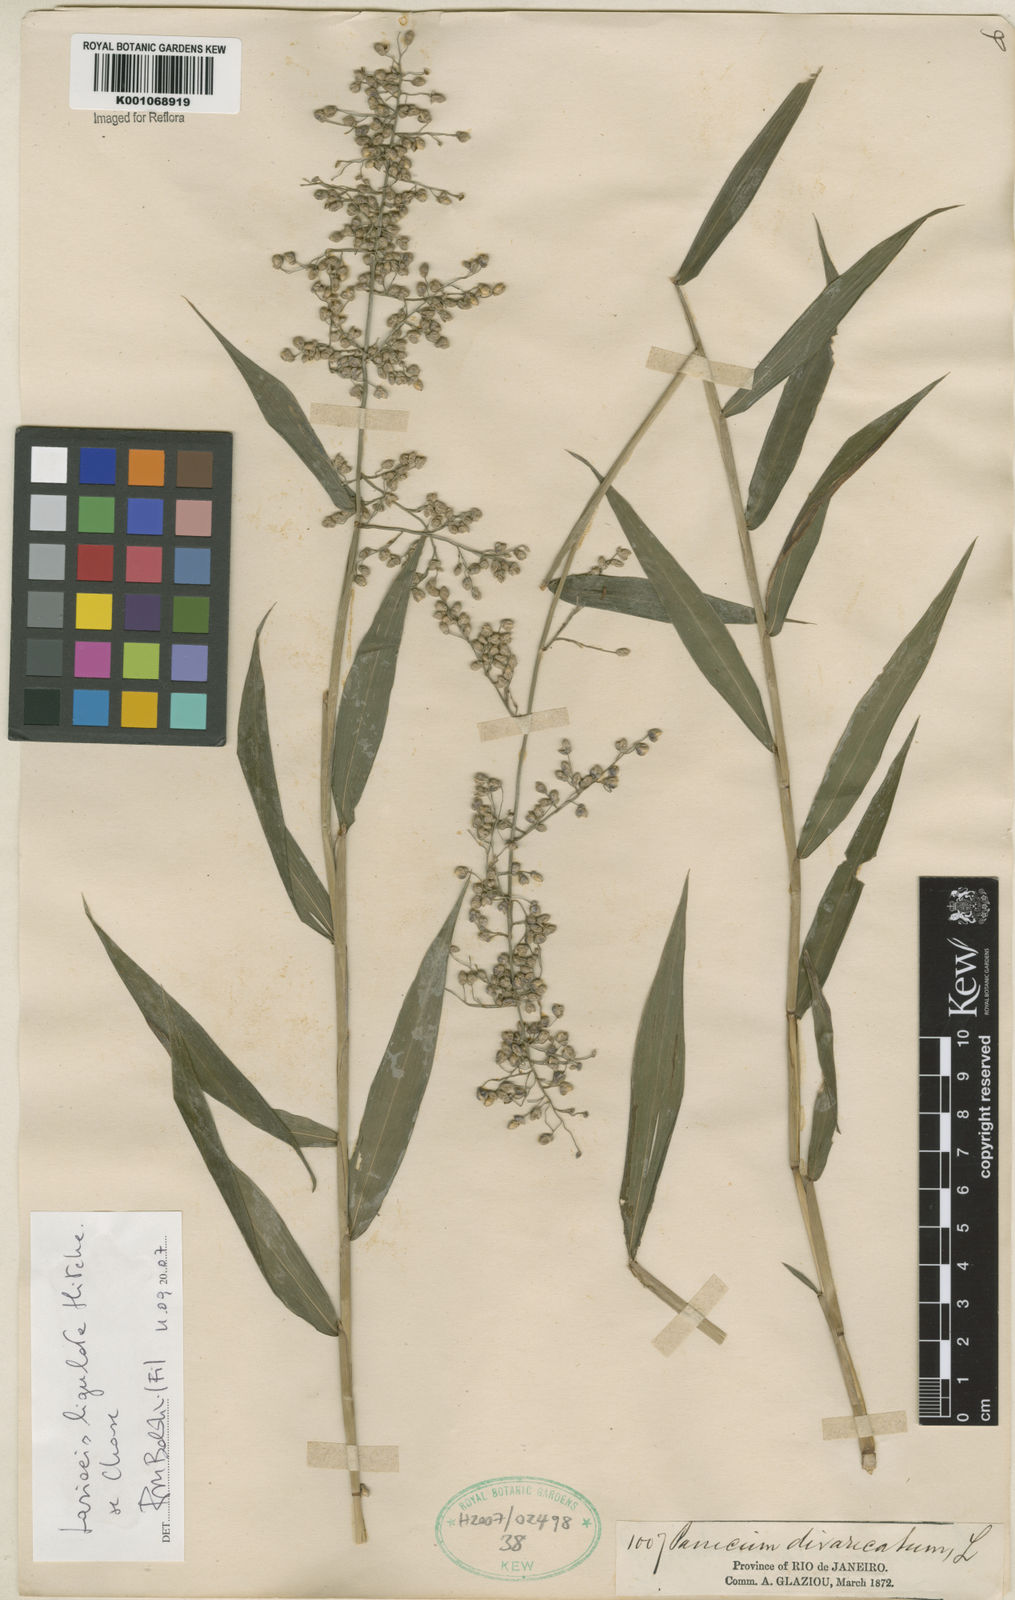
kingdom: Plantae
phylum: Tracheophyta
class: Liliopsida
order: Poales
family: Poaceae
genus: Lasiacis
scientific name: Lasiacis ligulata
